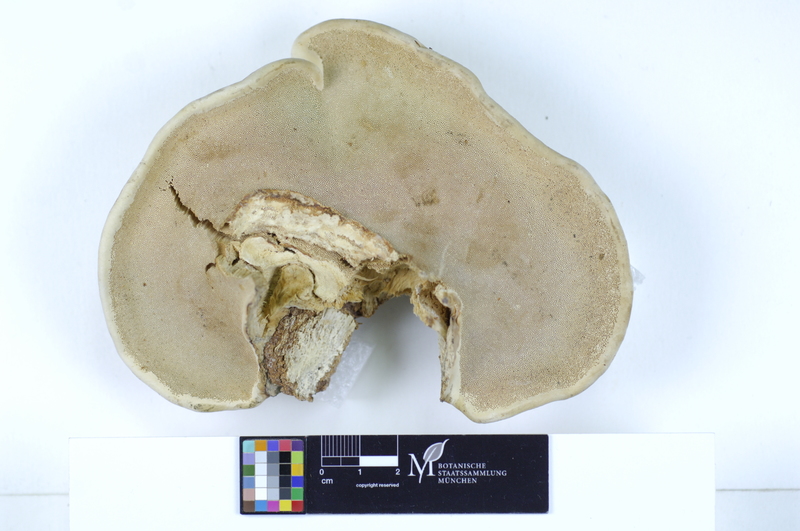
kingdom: Plantae
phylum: Tracheophyta
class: Pinopsida
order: Pinales
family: Pinaceae
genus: Picea
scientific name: Picea
